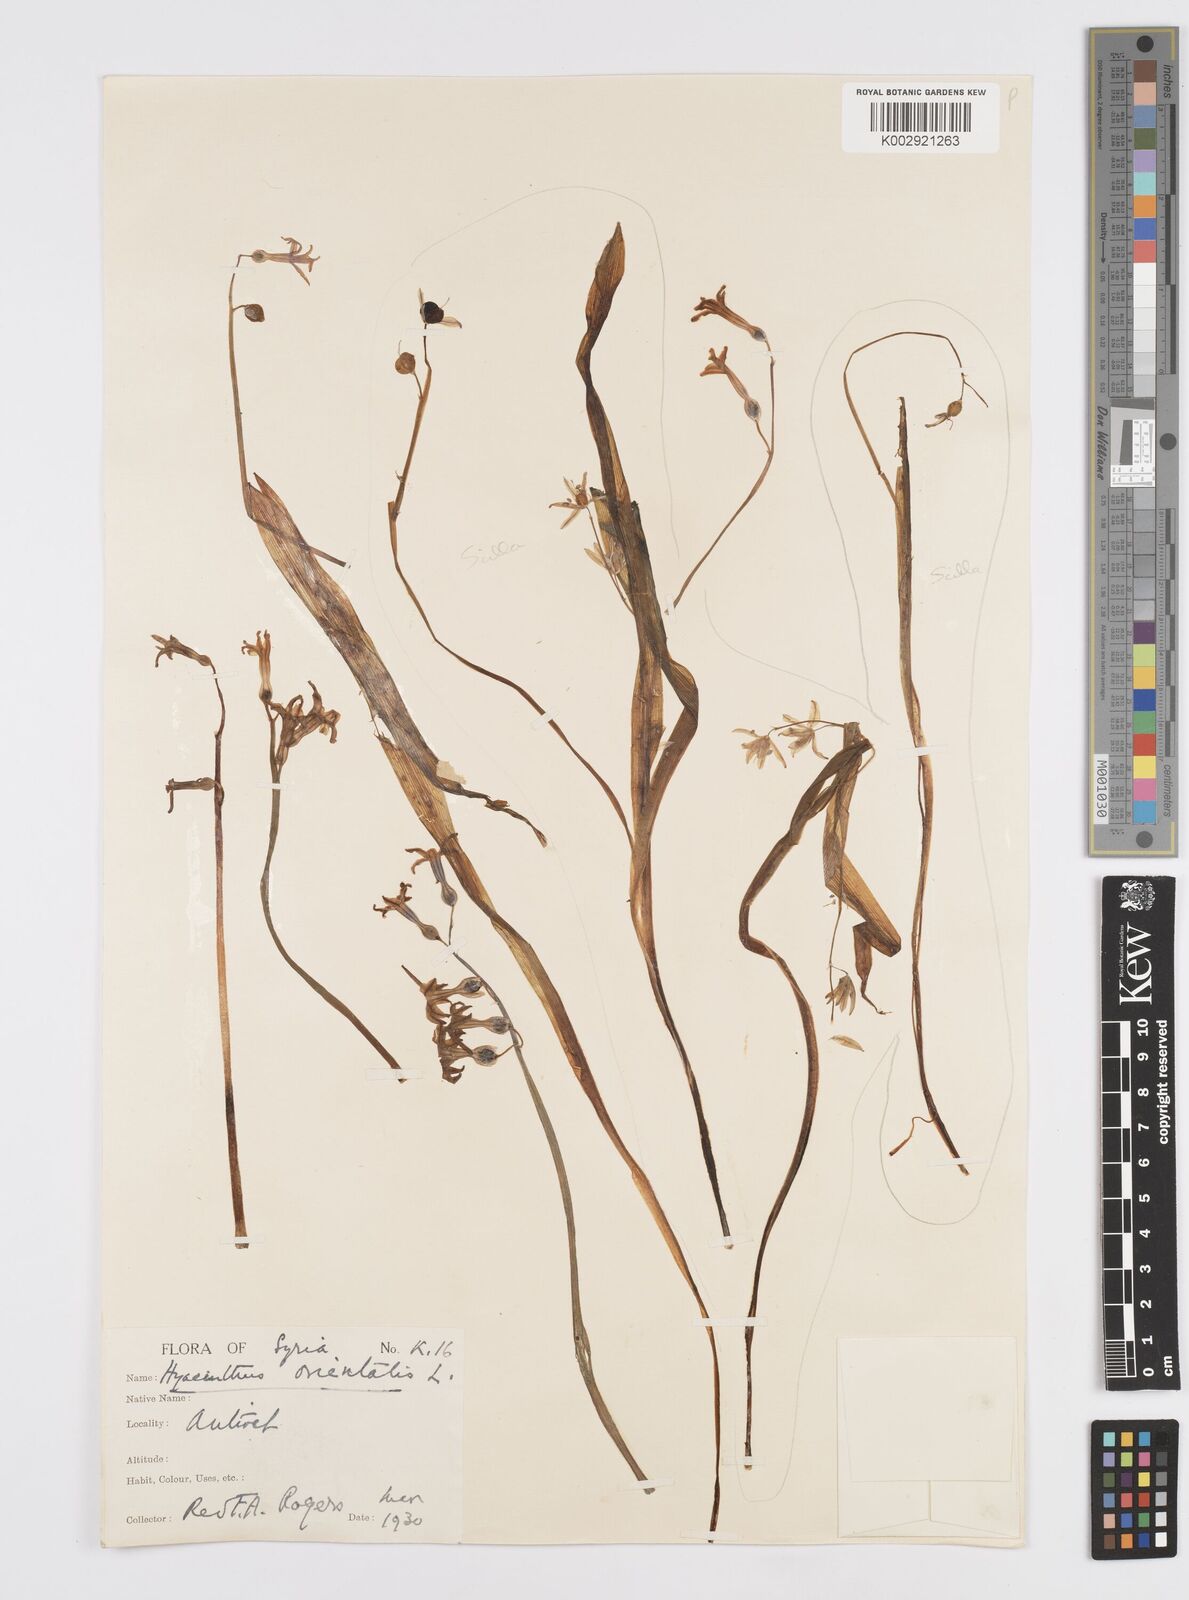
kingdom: Plantae
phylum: Tracheophyta
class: Liliopsida
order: Asparagales
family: Asparagaceae
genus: Hyacinthus
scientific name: Hyacinthus orientalis
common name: Hyacinth
